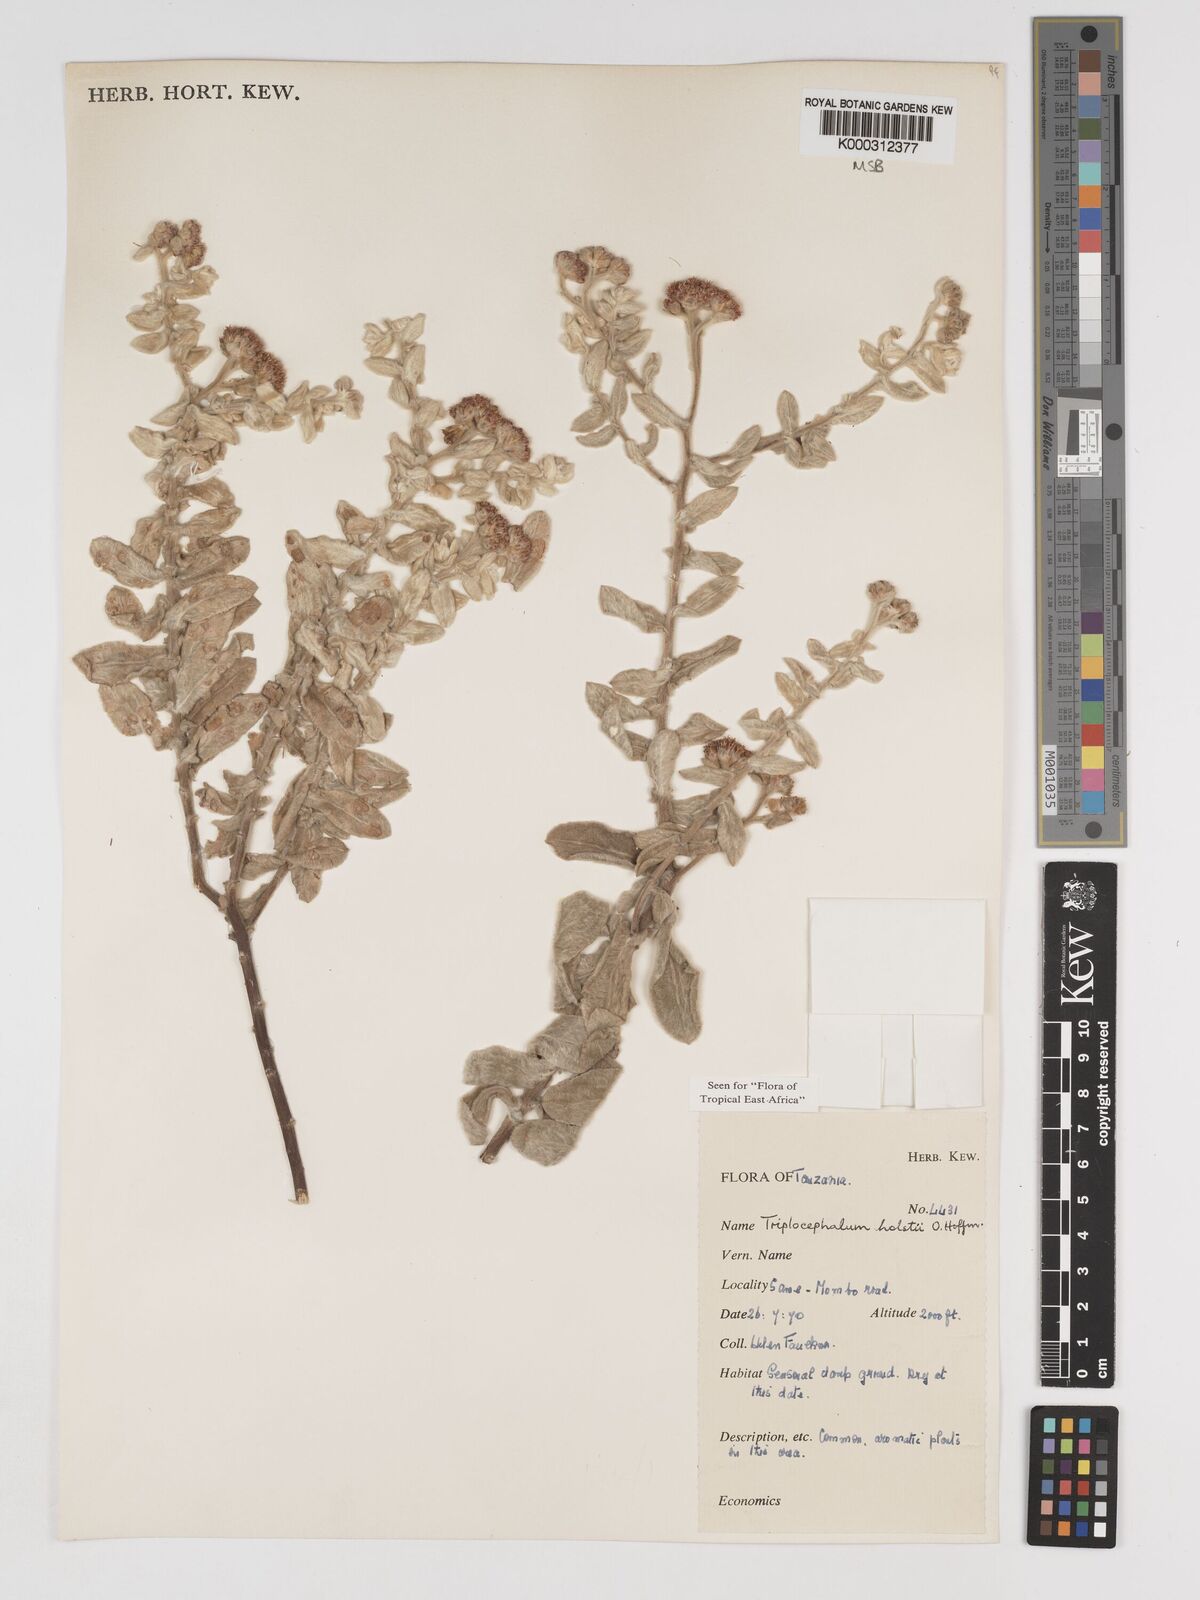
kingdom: Plantae
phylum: Tracheophyta
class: Magnoliopsida
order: Asterales
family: Asteraceae
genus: Triplocephalum
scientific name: Triplocephalum holstii
